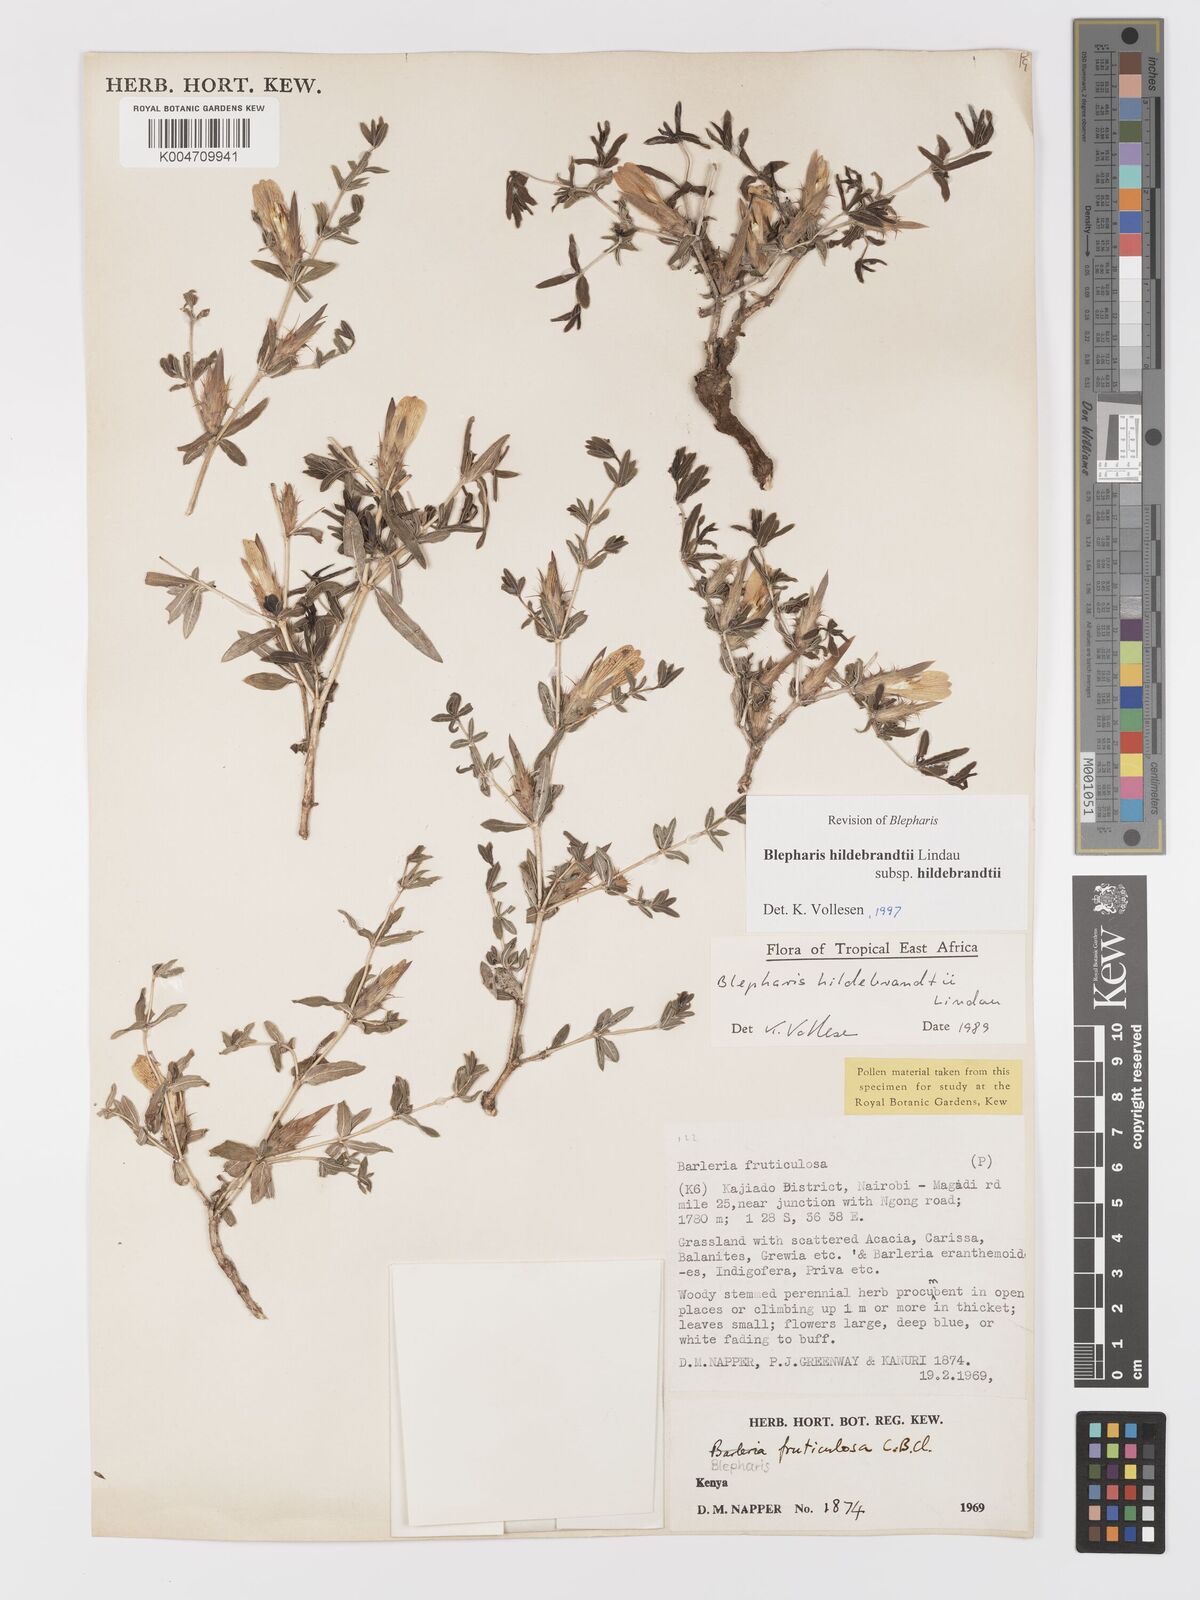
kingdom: Plantae
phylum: Tracheophyta
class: Magnoliopsida
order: Lamiales
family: Acanthaceae
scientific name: Acanthaceae
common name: Acanthaceae
